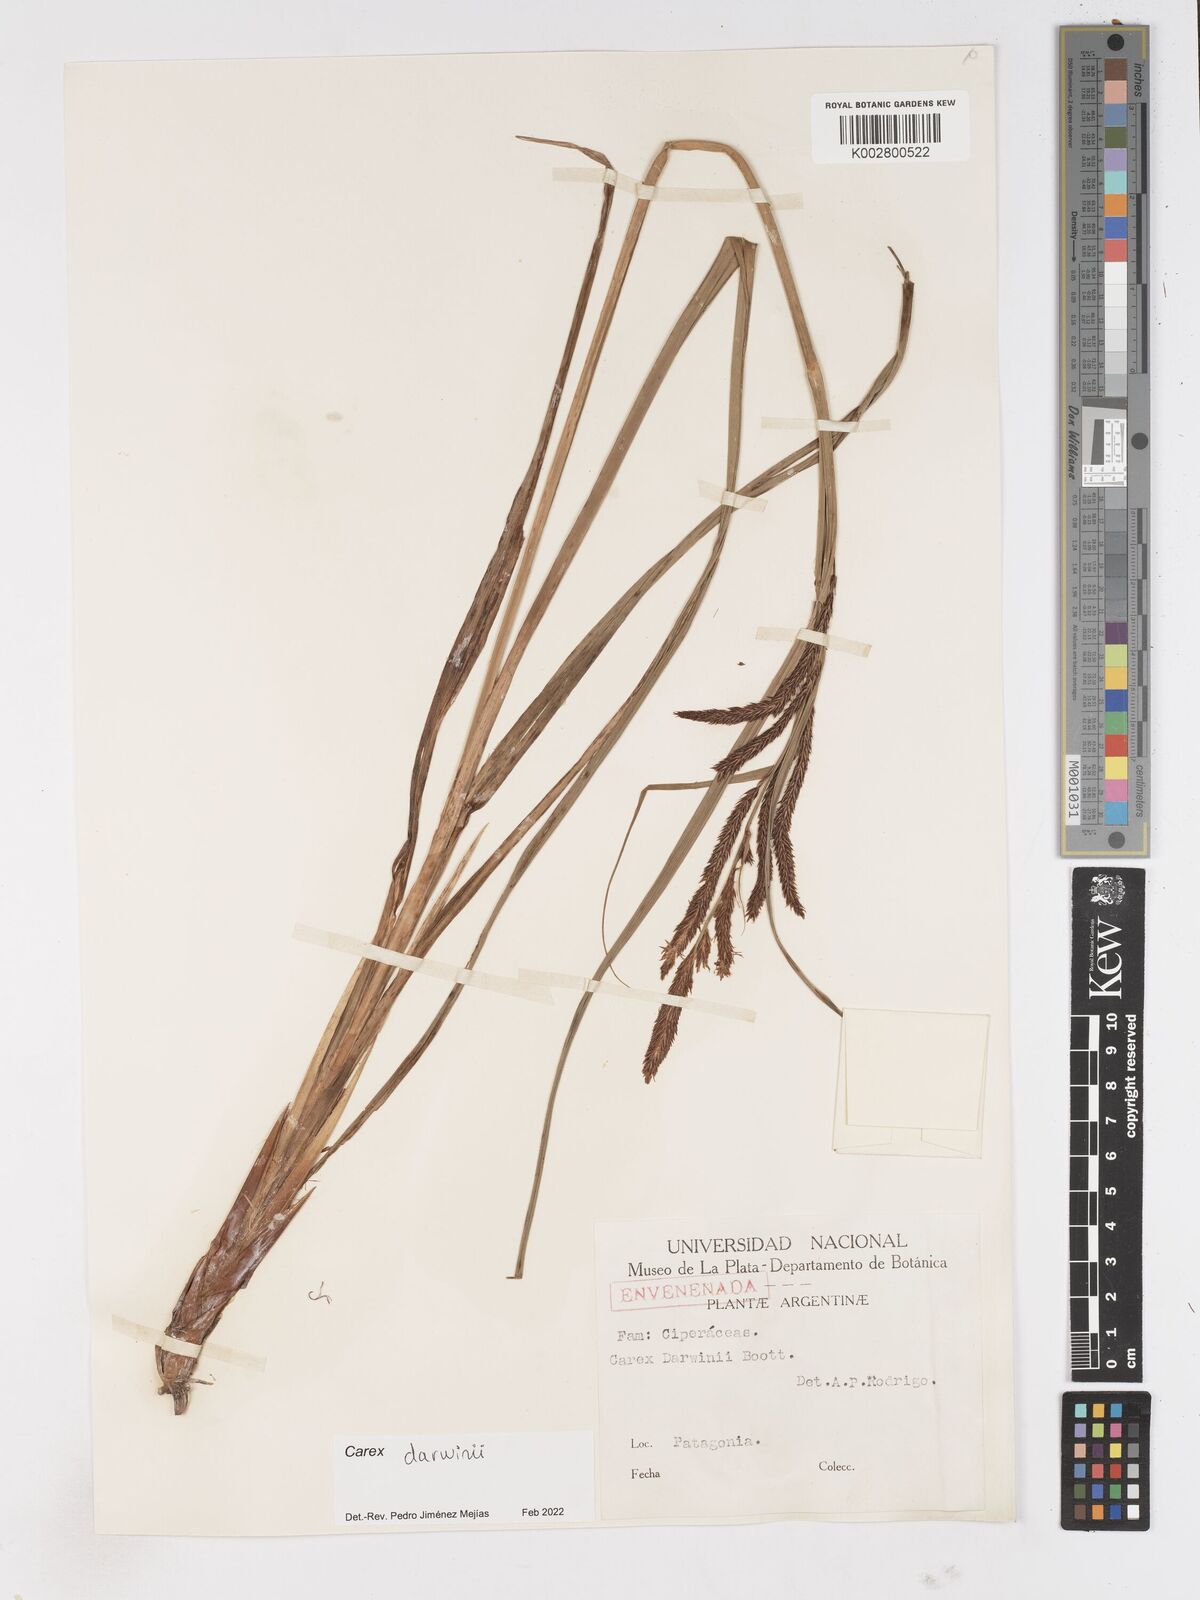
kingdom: Plantae
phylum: Tracheophyta
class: Liliopsida
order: Poales
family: Cyperaceae
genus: Carex
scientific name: Carex darwinii
